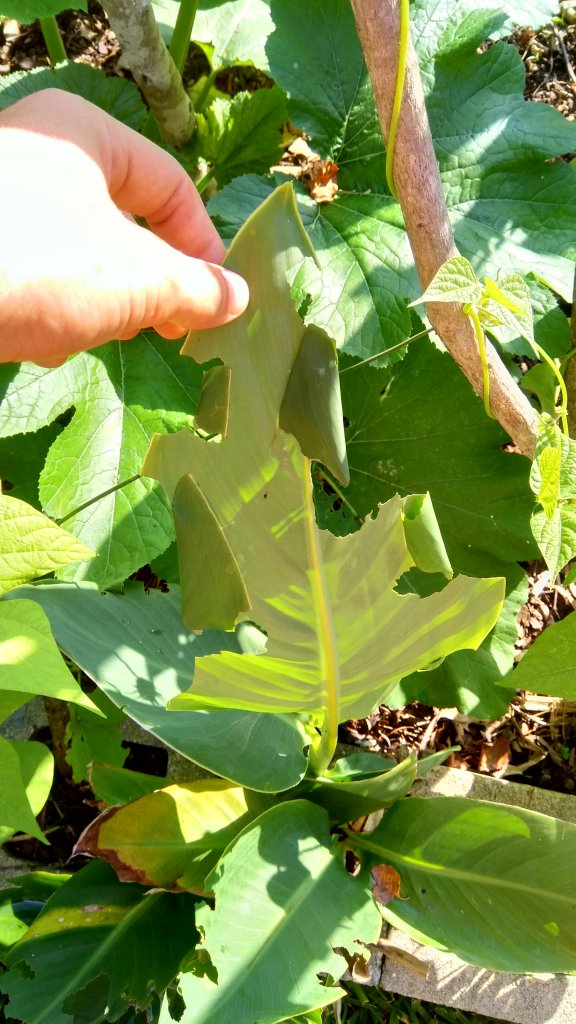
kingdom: Animalia
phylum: Arthropoda
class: Insecta
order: Lepidoptera
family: Hesperiidae
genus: Calpodes
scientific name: Calpodes ethlius
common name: Brazilian Skipper
